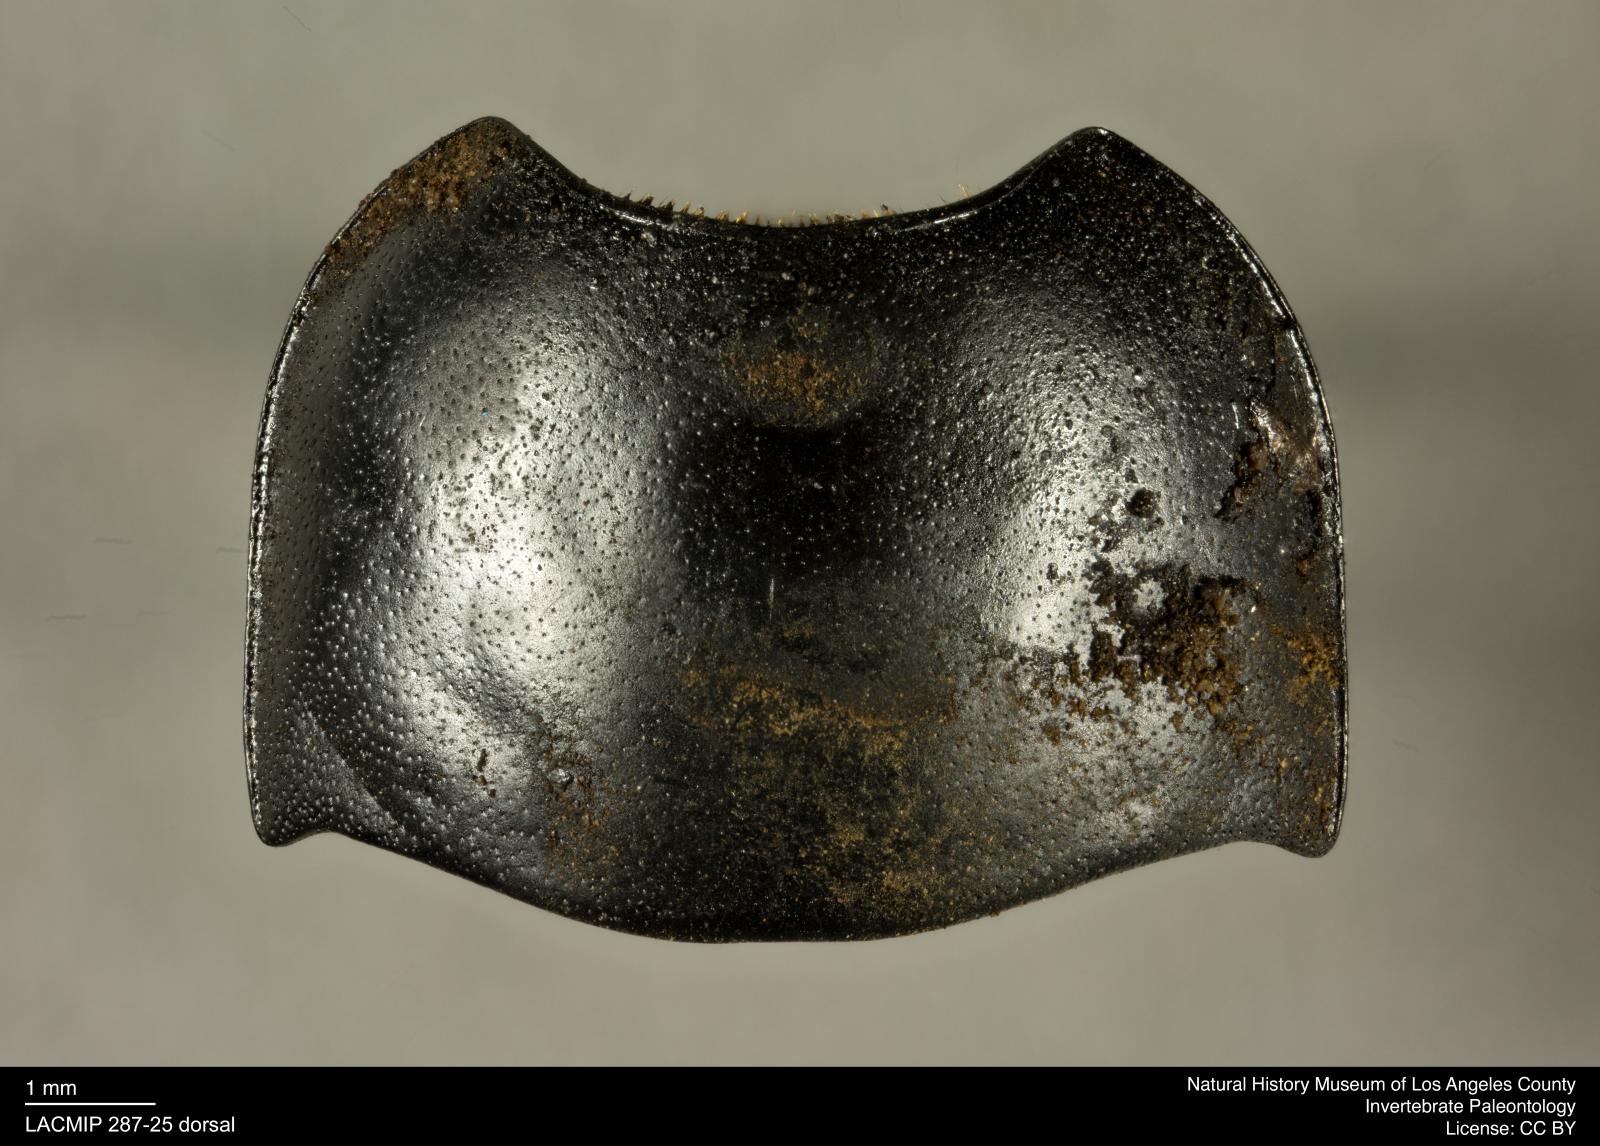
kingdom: Animalia
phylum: Arthropoda
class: Insecta
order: Coleoptera
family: Tenebrionidae
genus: Coniontis
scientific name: Coniontis abdominalis
